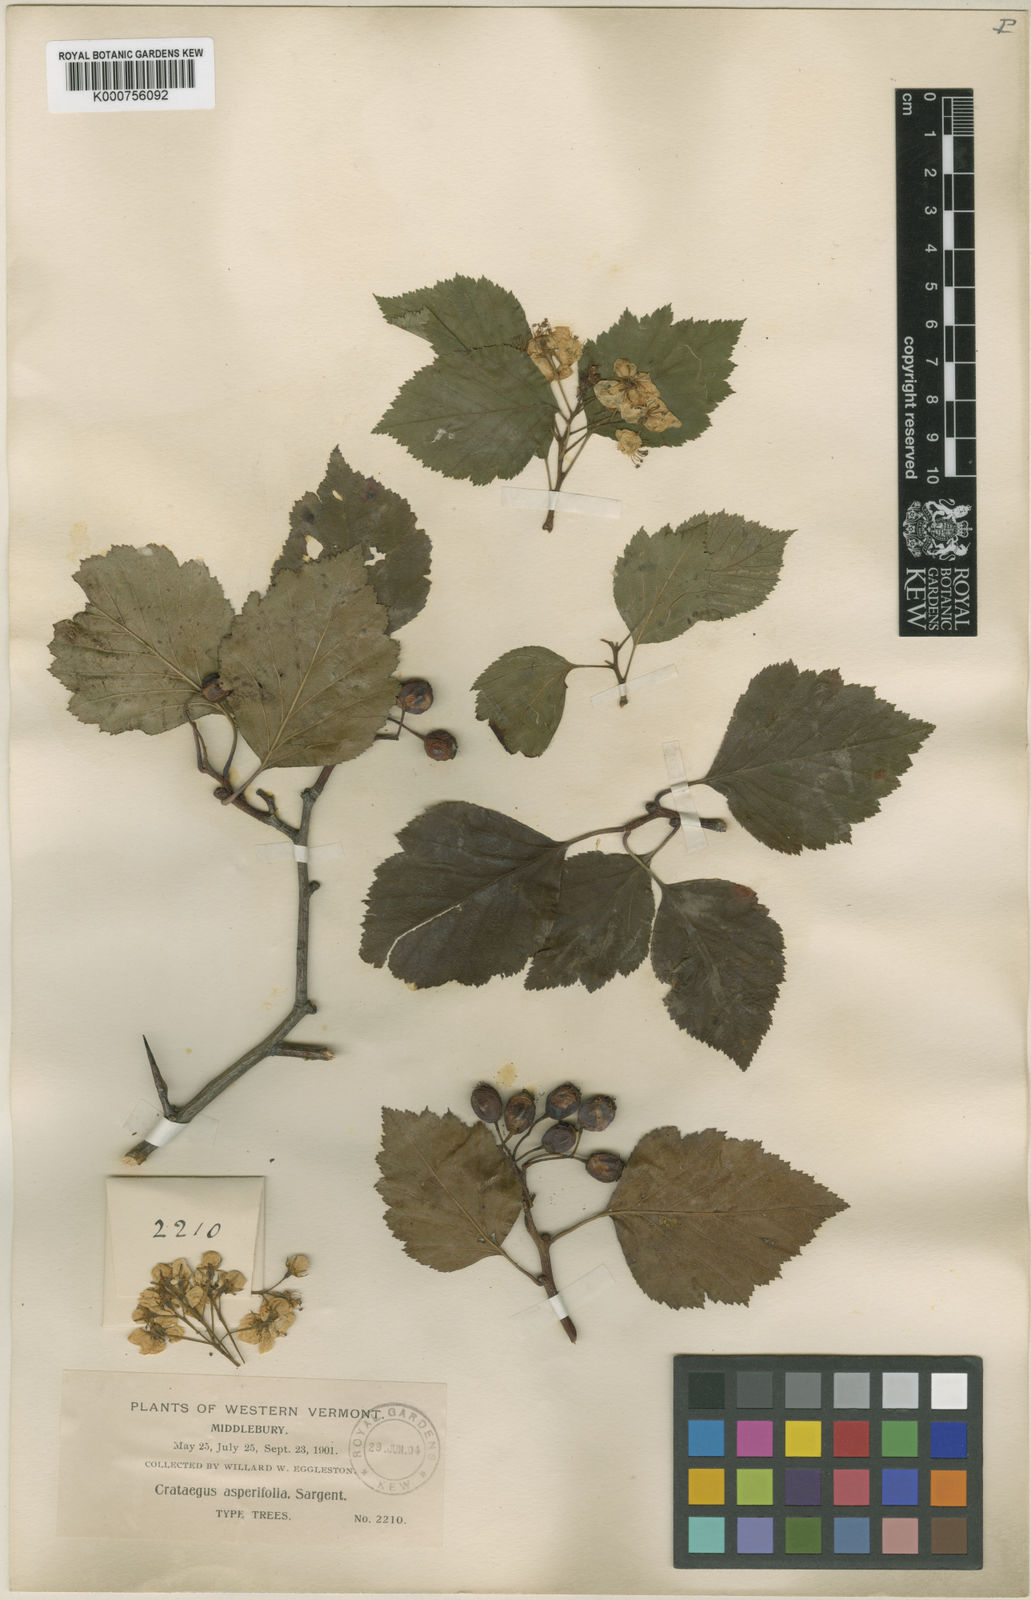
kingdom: Plantae
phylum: Tracheophyta
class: Magnoliopsida
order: Rosales
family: Rosaceae
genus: Crataegus
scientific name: Crataegus scabrida
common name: Rough hawthorn
